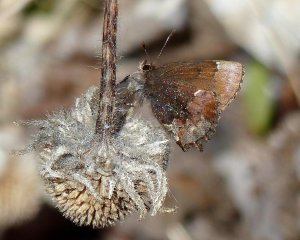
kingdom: Animalia
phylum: Arthropoda
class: Insecta
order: Lepidoptera
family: Lycaenidae
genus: Incisalia
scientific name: Incisalia henrici
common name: Henry's Elfin
